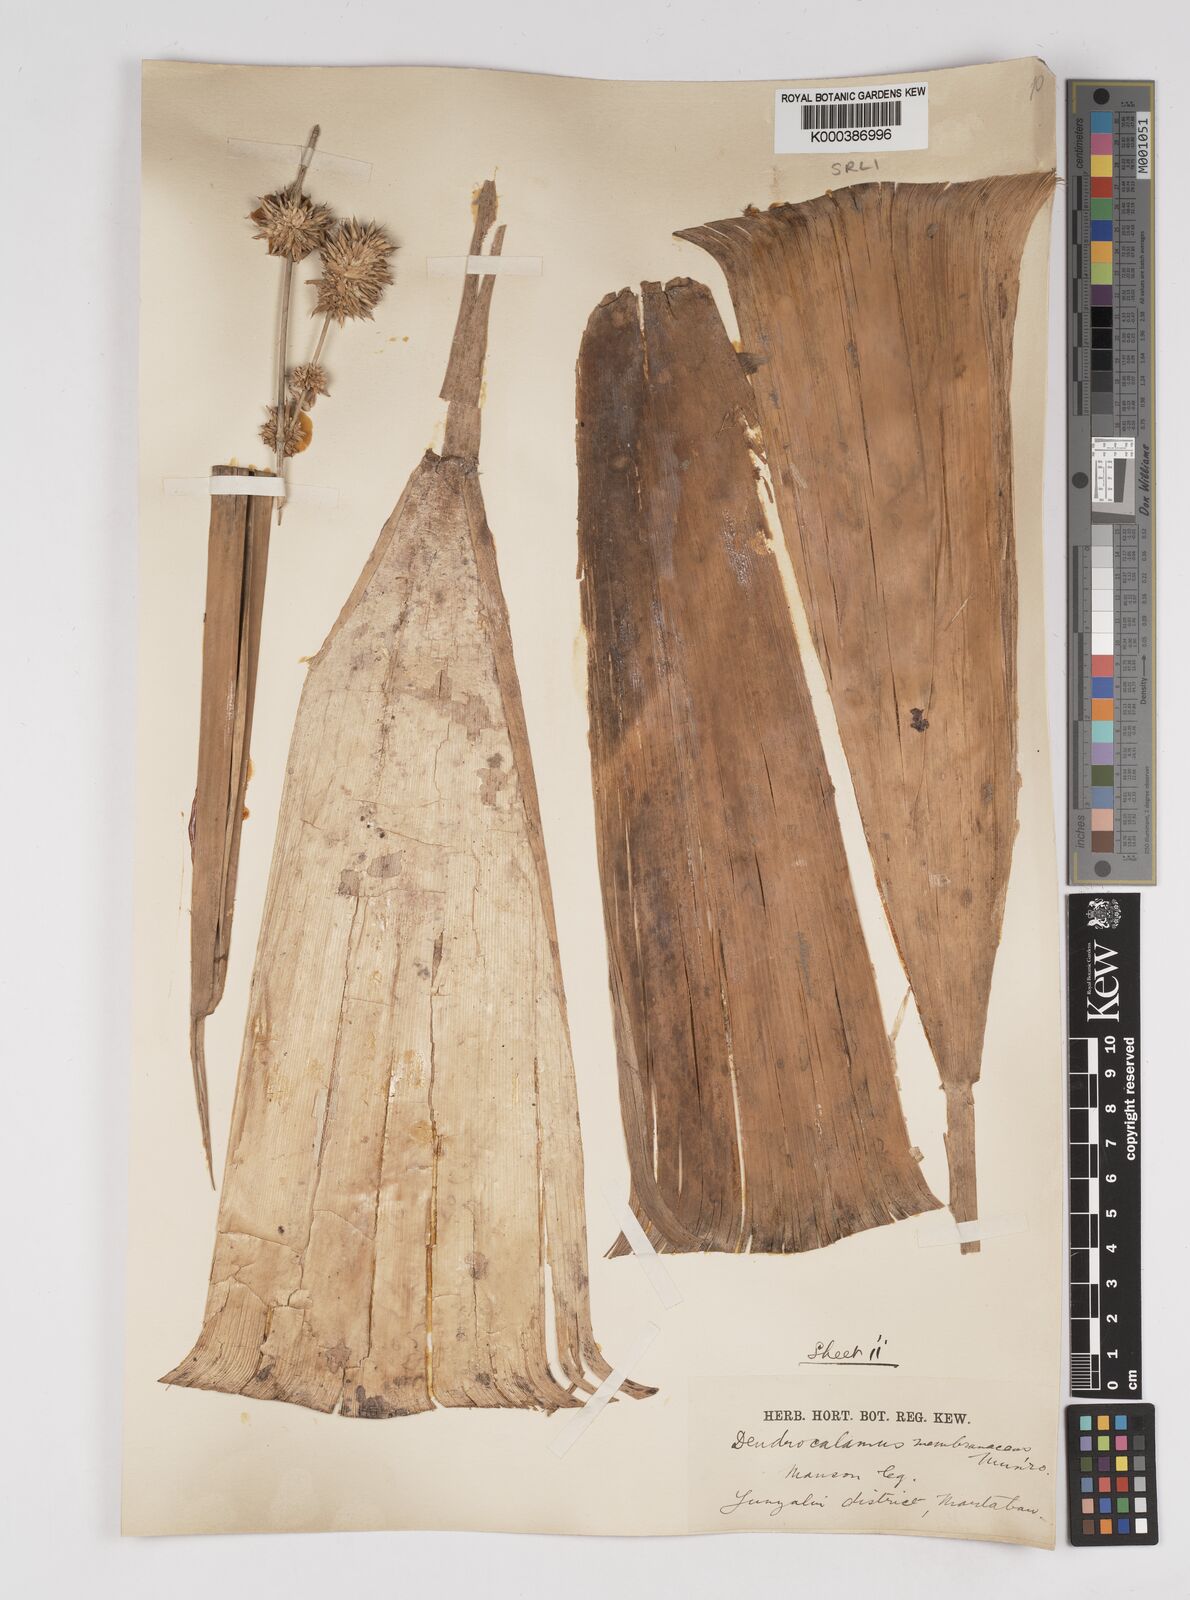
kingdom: Plantae
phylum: Tracheophyta
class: Liliopsida
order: Poales
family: Poaceae
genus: Dendrocalamus
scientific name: Dendrocalamus membranaceus
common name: White bamboo
